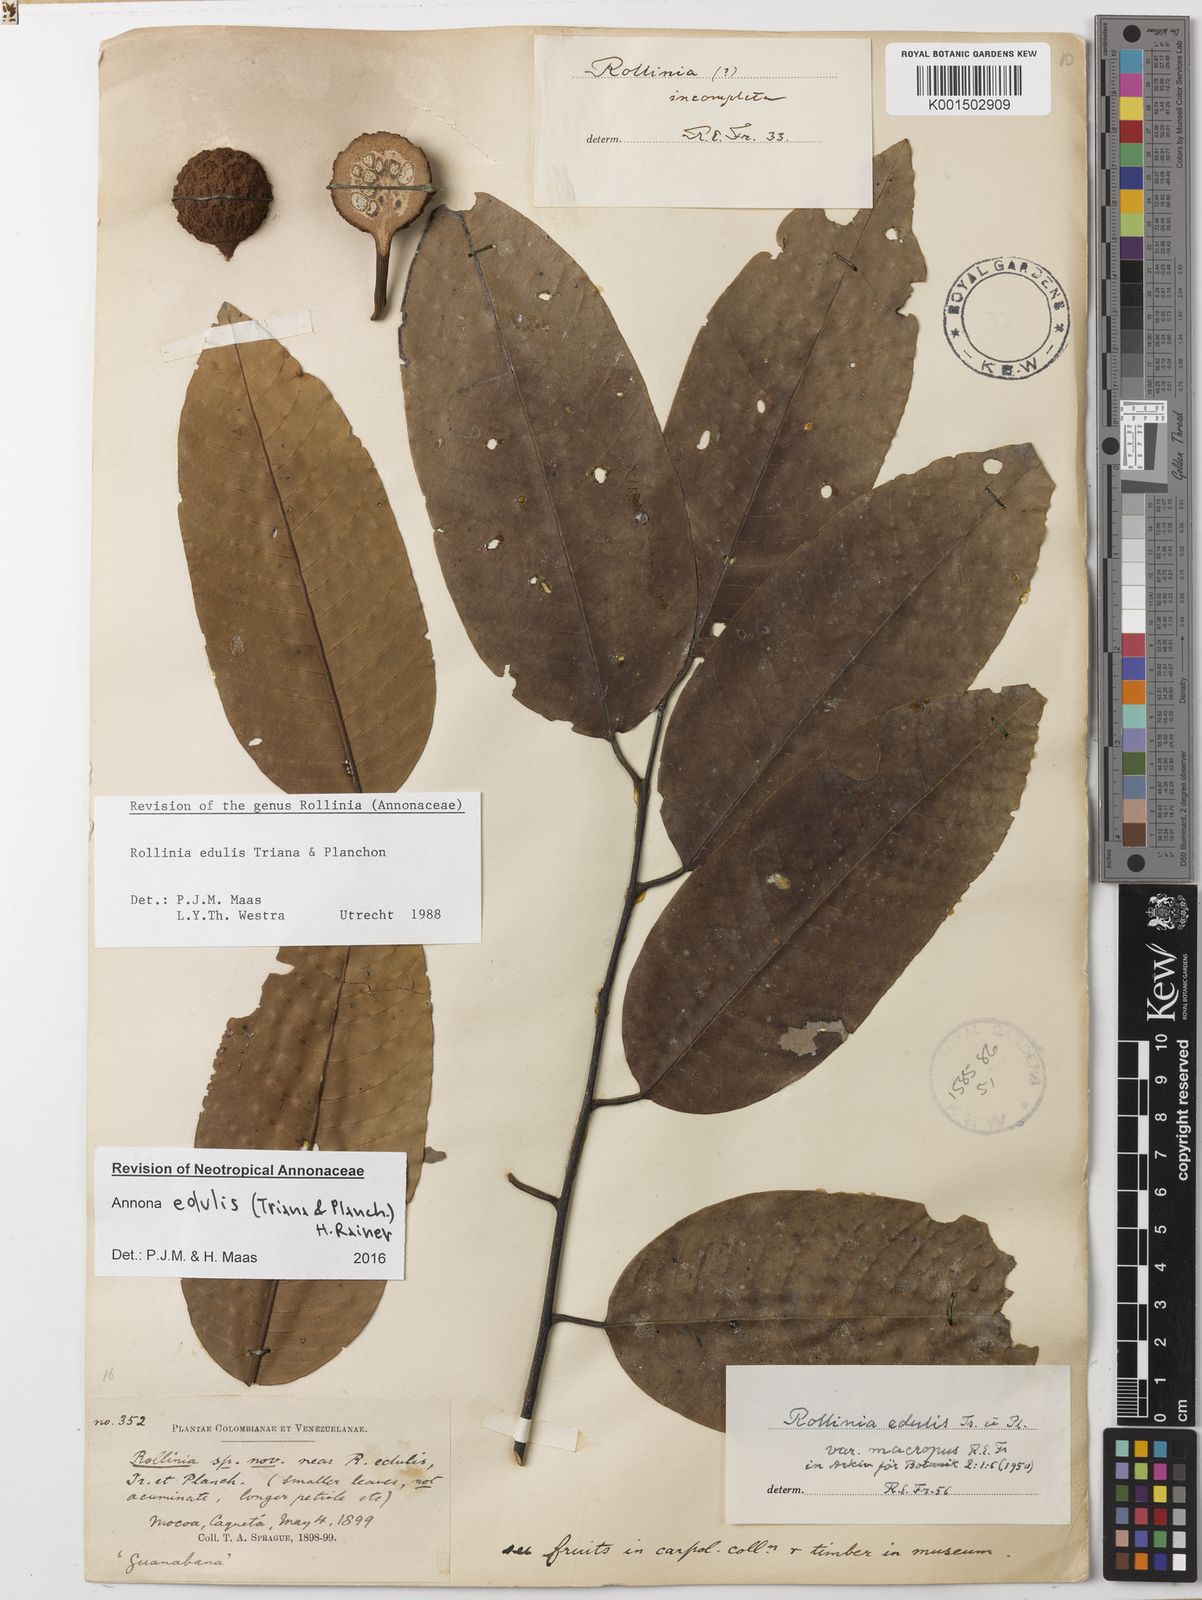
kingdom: Plantae
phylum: Tracheophyta
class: Magnoliopsida
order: Magnoliales
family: Annonaceae
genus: Annona
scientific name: Annona edulis
